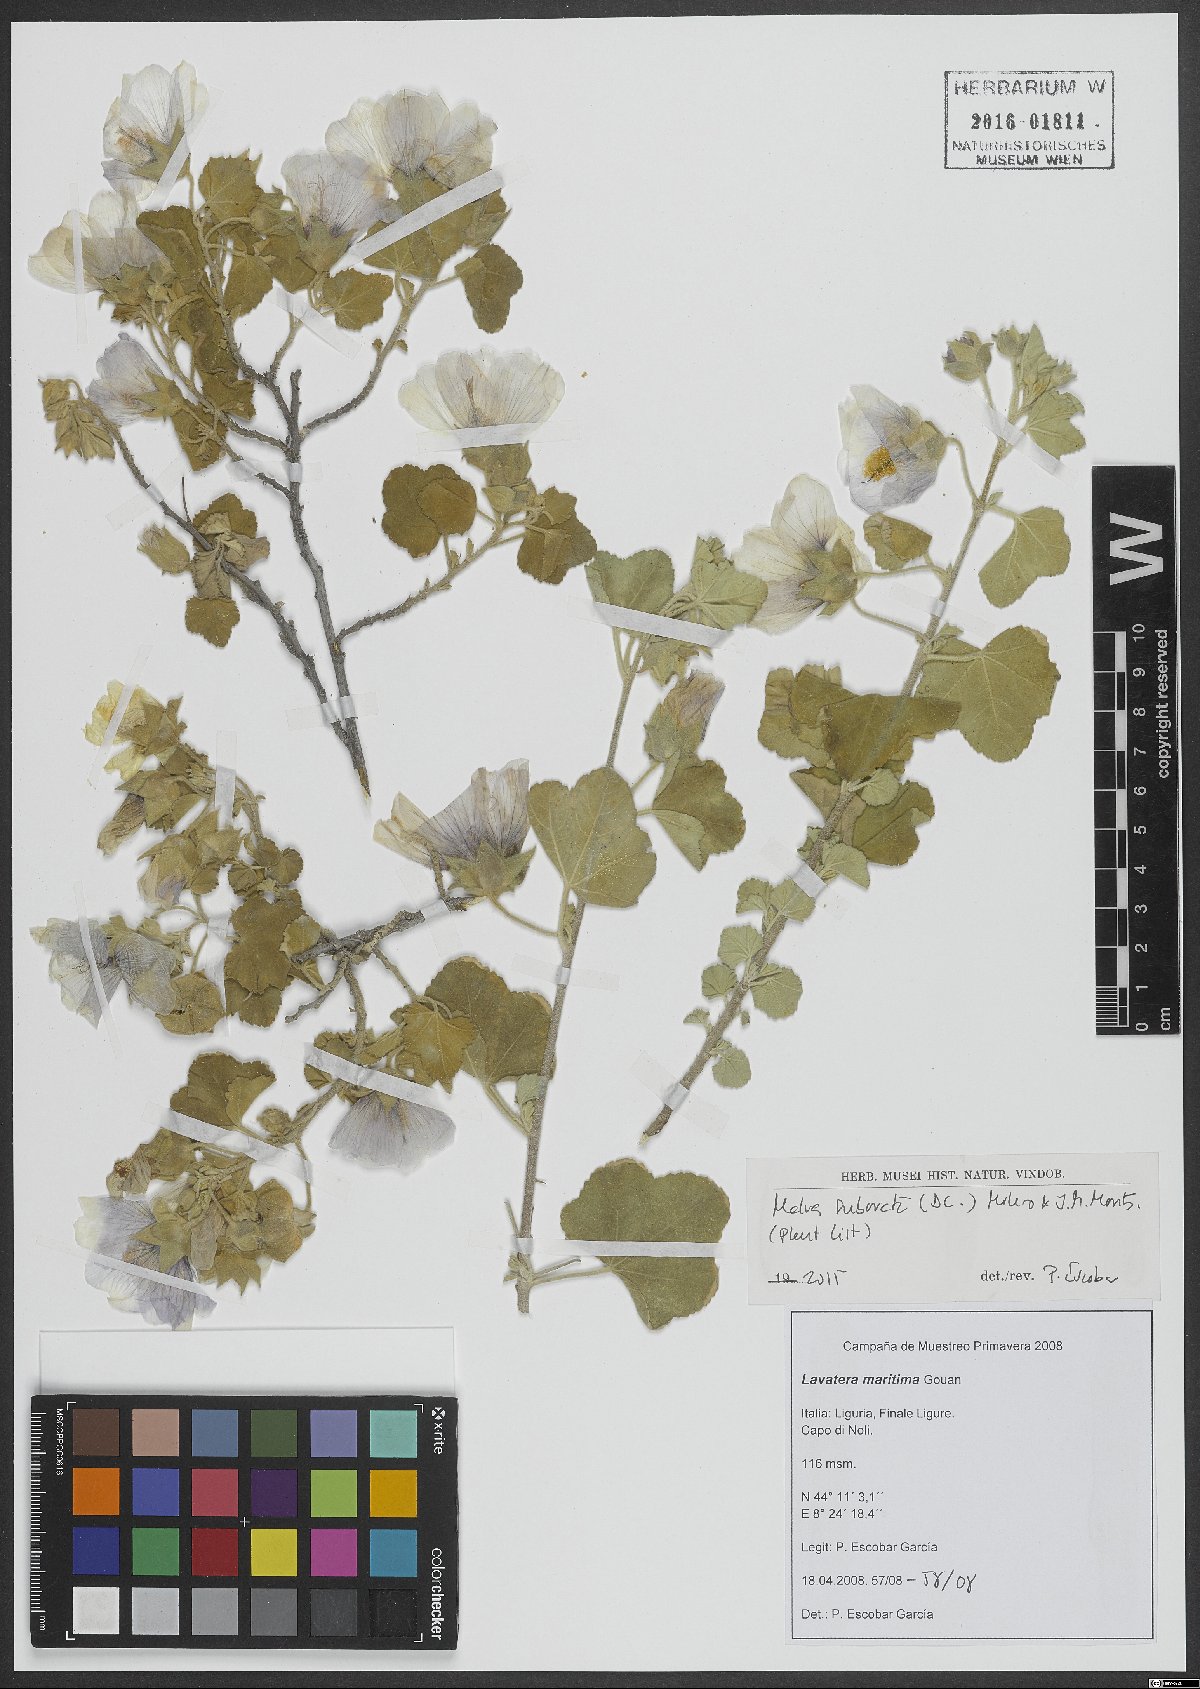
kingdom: Plantae
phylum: Tracheophyta
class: Magnoliopsida
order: Malvales
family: Malvaceae
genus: Malva
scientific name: Malva subovata
